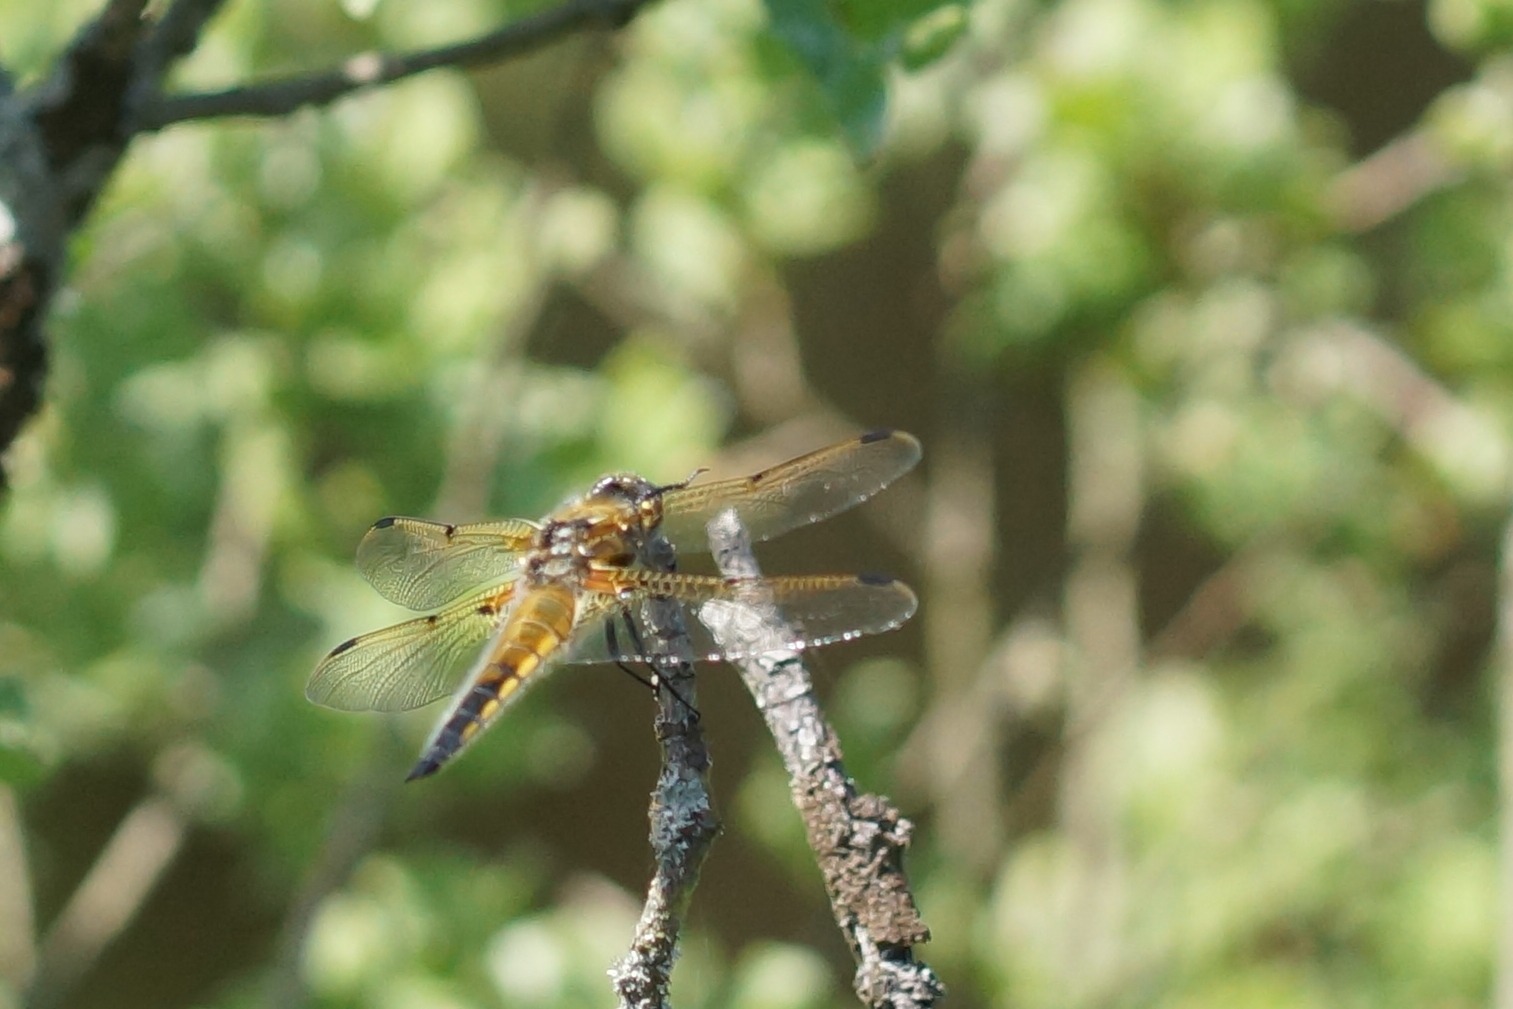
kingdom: Animalia
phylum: Arthropoda
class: Insecta
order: Odonata
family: Libellulidae
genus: Libellula
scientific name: Libellula quadrimaculata
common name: Fireplettet libel
